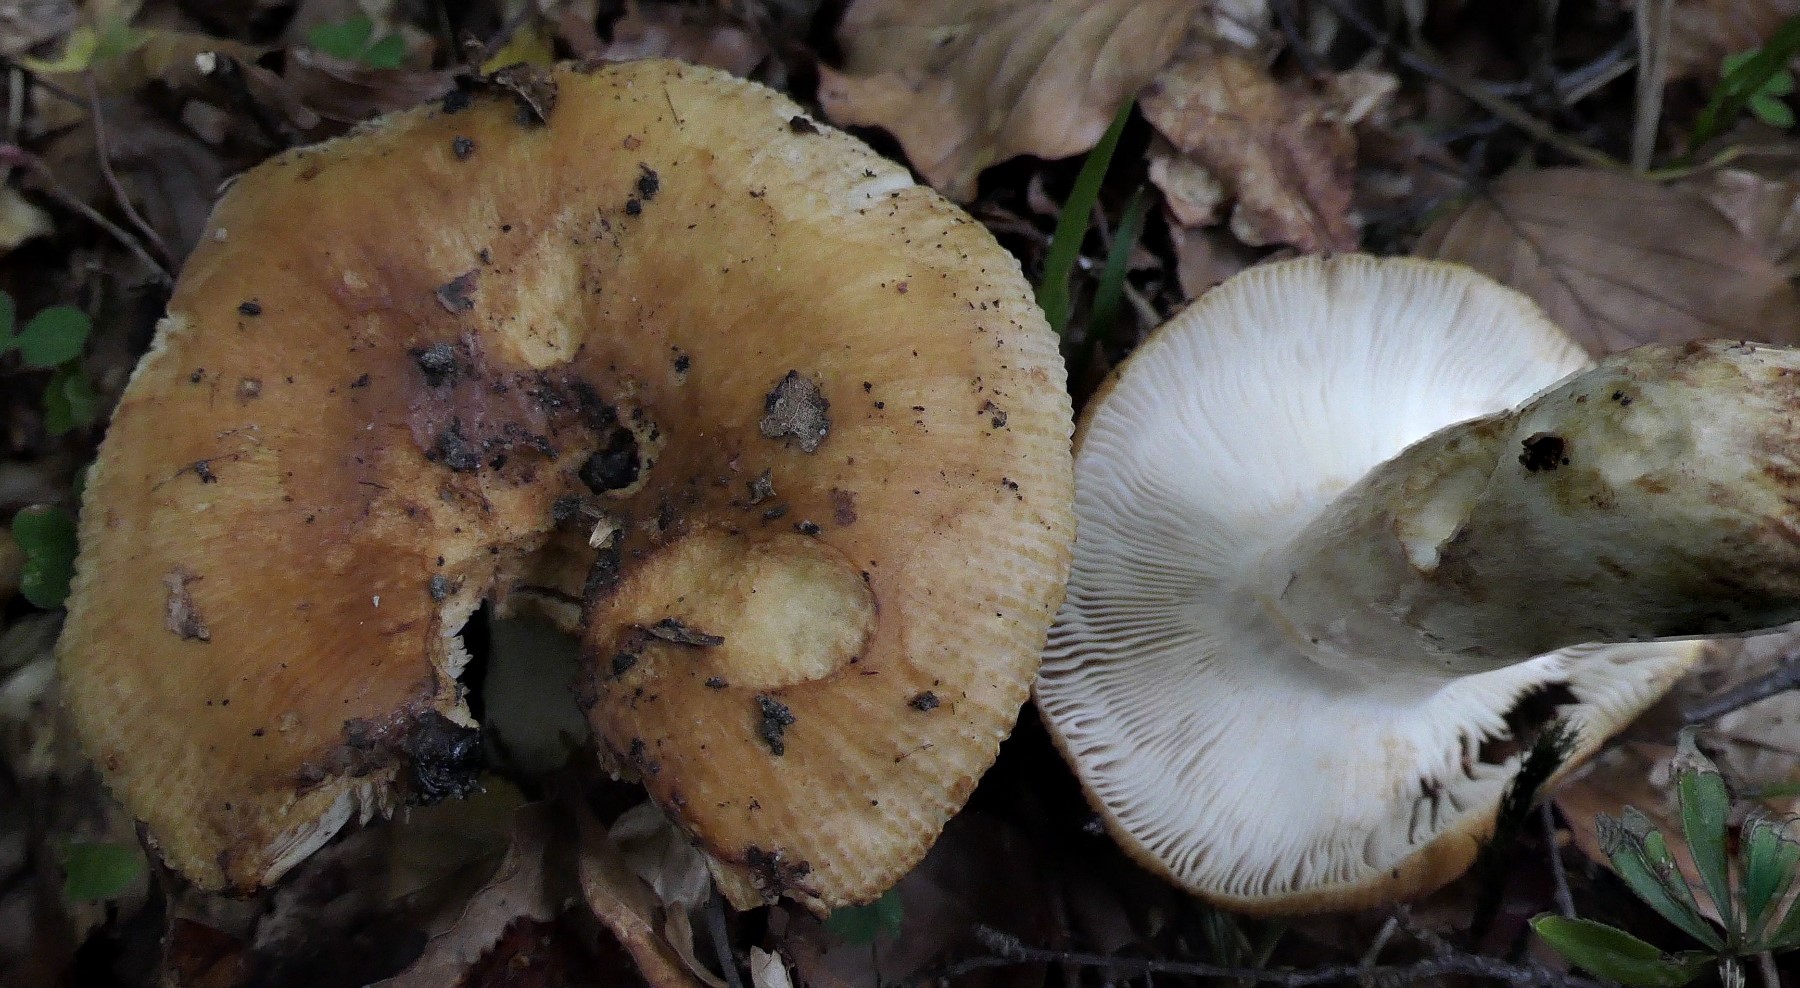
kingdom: Fungi
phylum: Basidiomycota
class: Agaricomycetes
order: Russulales
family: Russulaceae
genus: Russula
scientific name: Russula foetens
